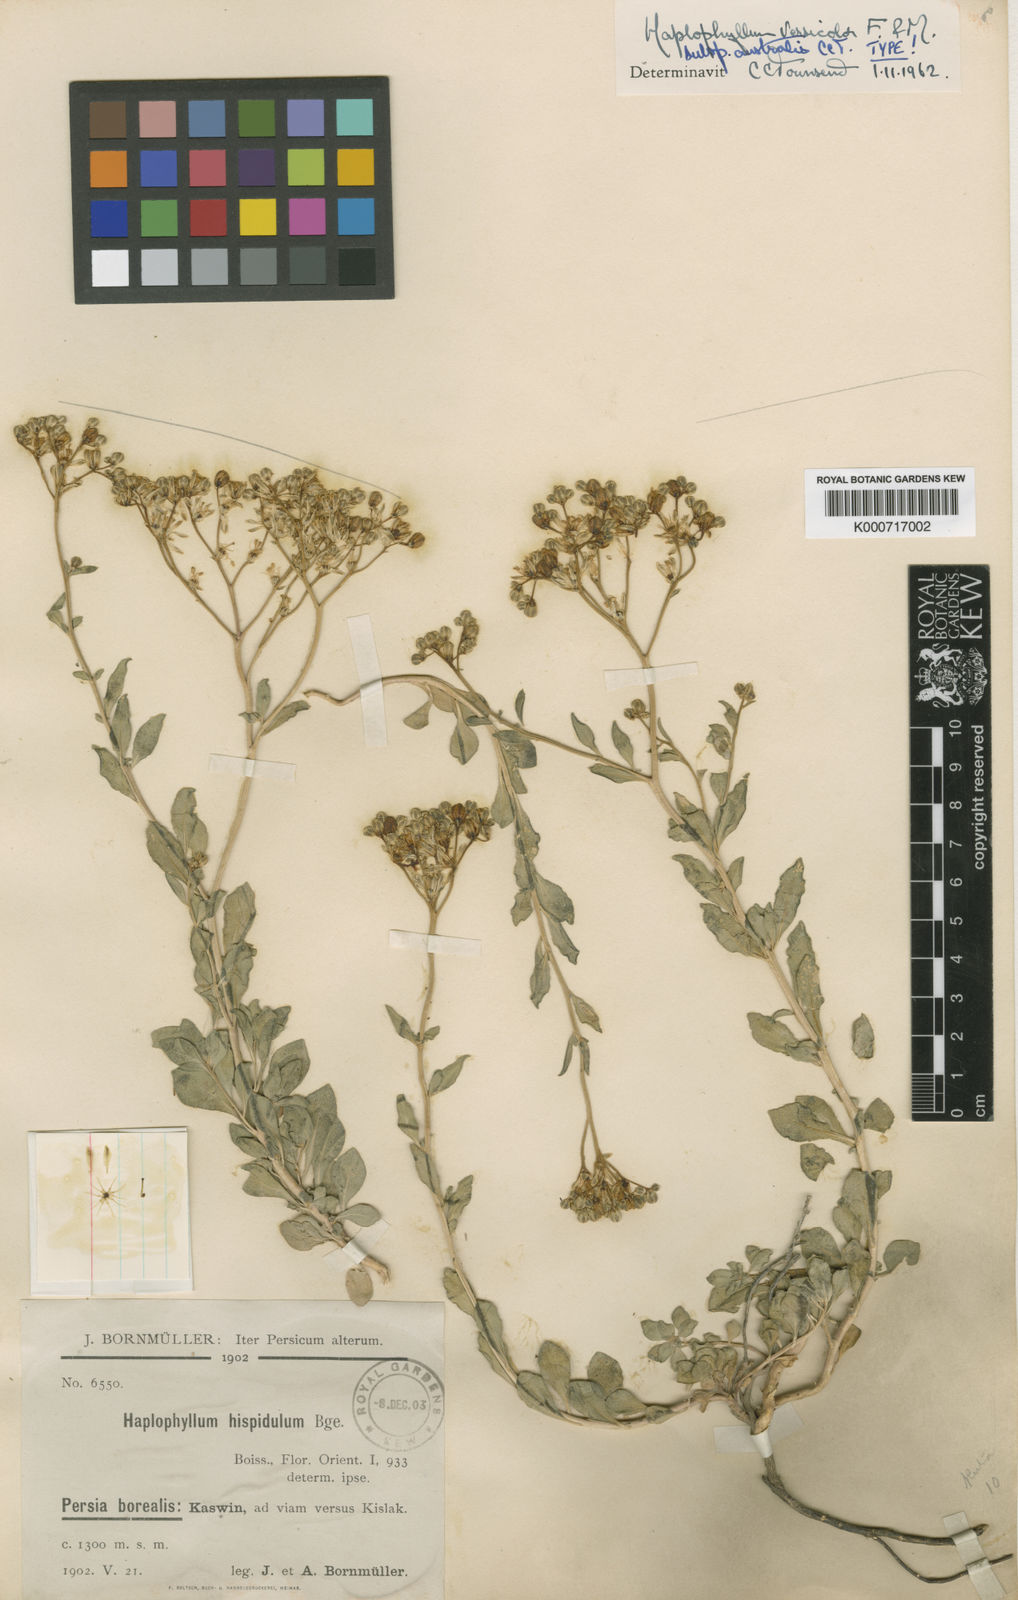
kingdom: Plantae
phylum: Tracheophyta
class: Magnoliopsida
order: Sapindales
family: Rutaceae
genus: Haplophyllum
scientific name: Haplophyllum versicolor
